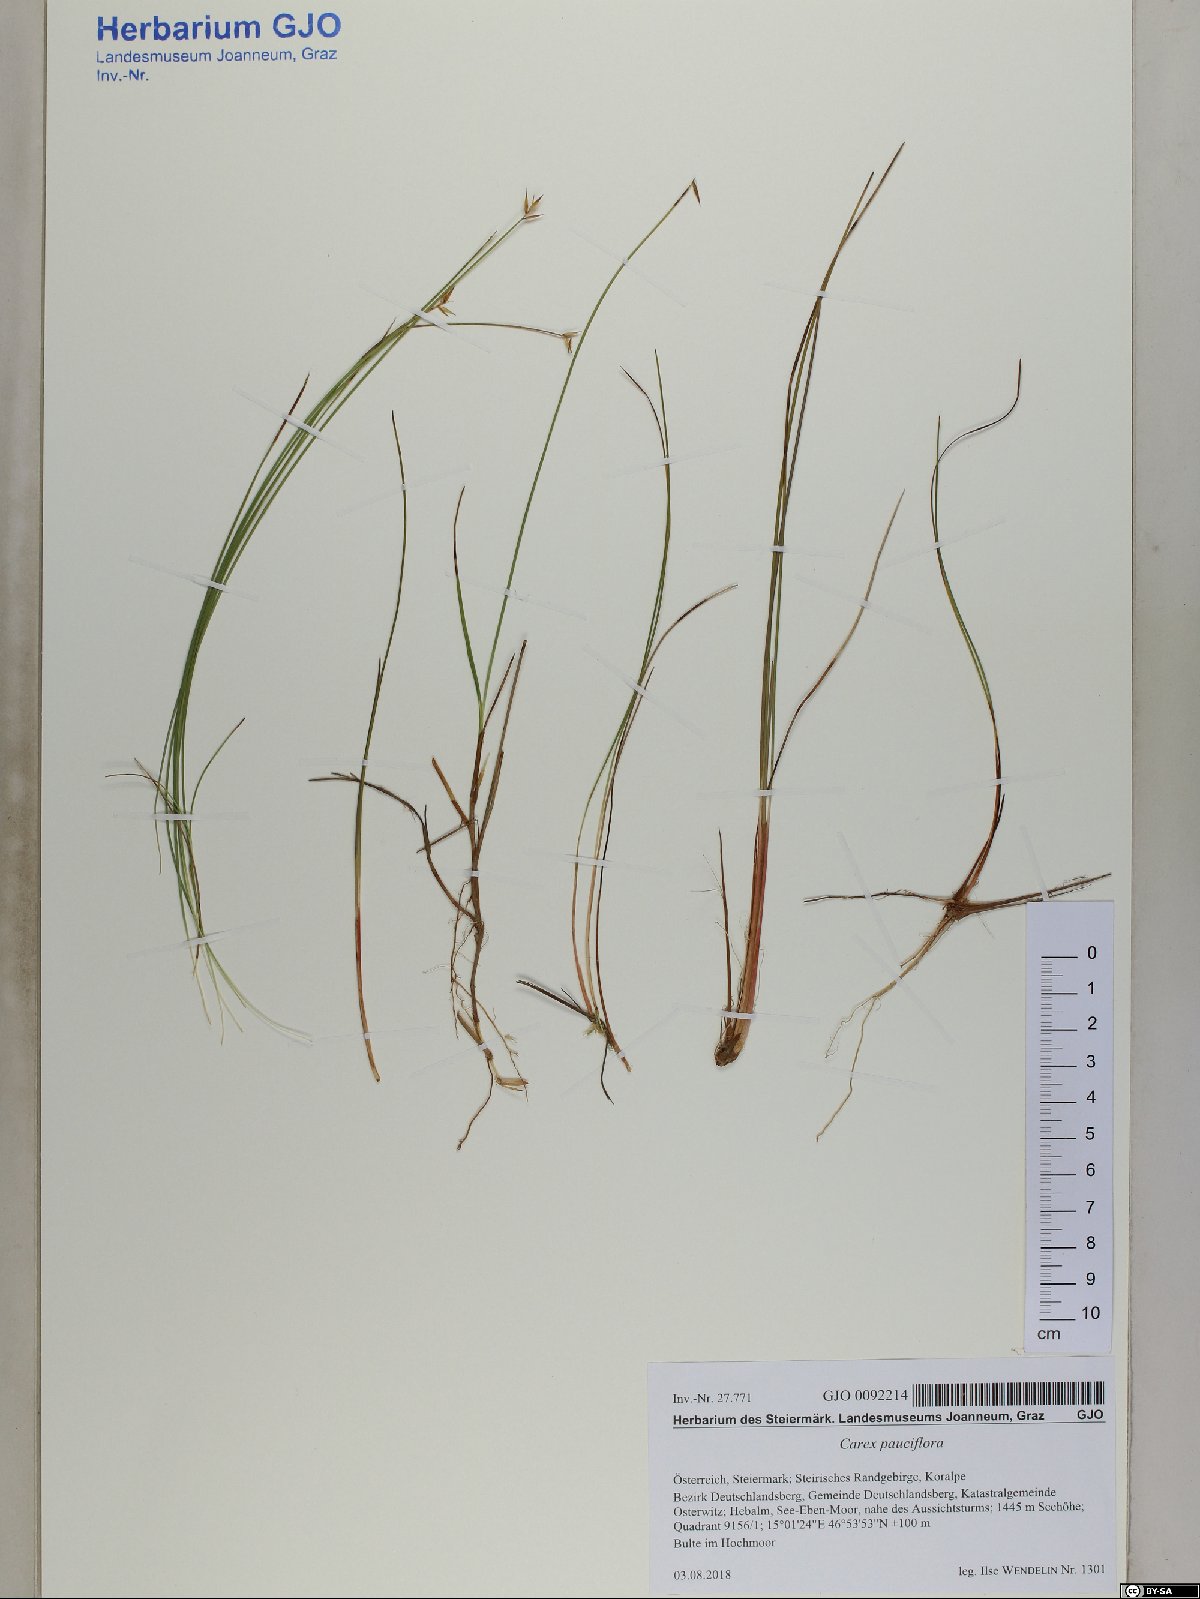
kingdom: Plantae
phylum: Tracheophyta
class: Liliopsida
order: Poales
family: Cyperaceae
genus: Carex
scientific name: Carex pauciflora
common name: Few-flowered sedge
